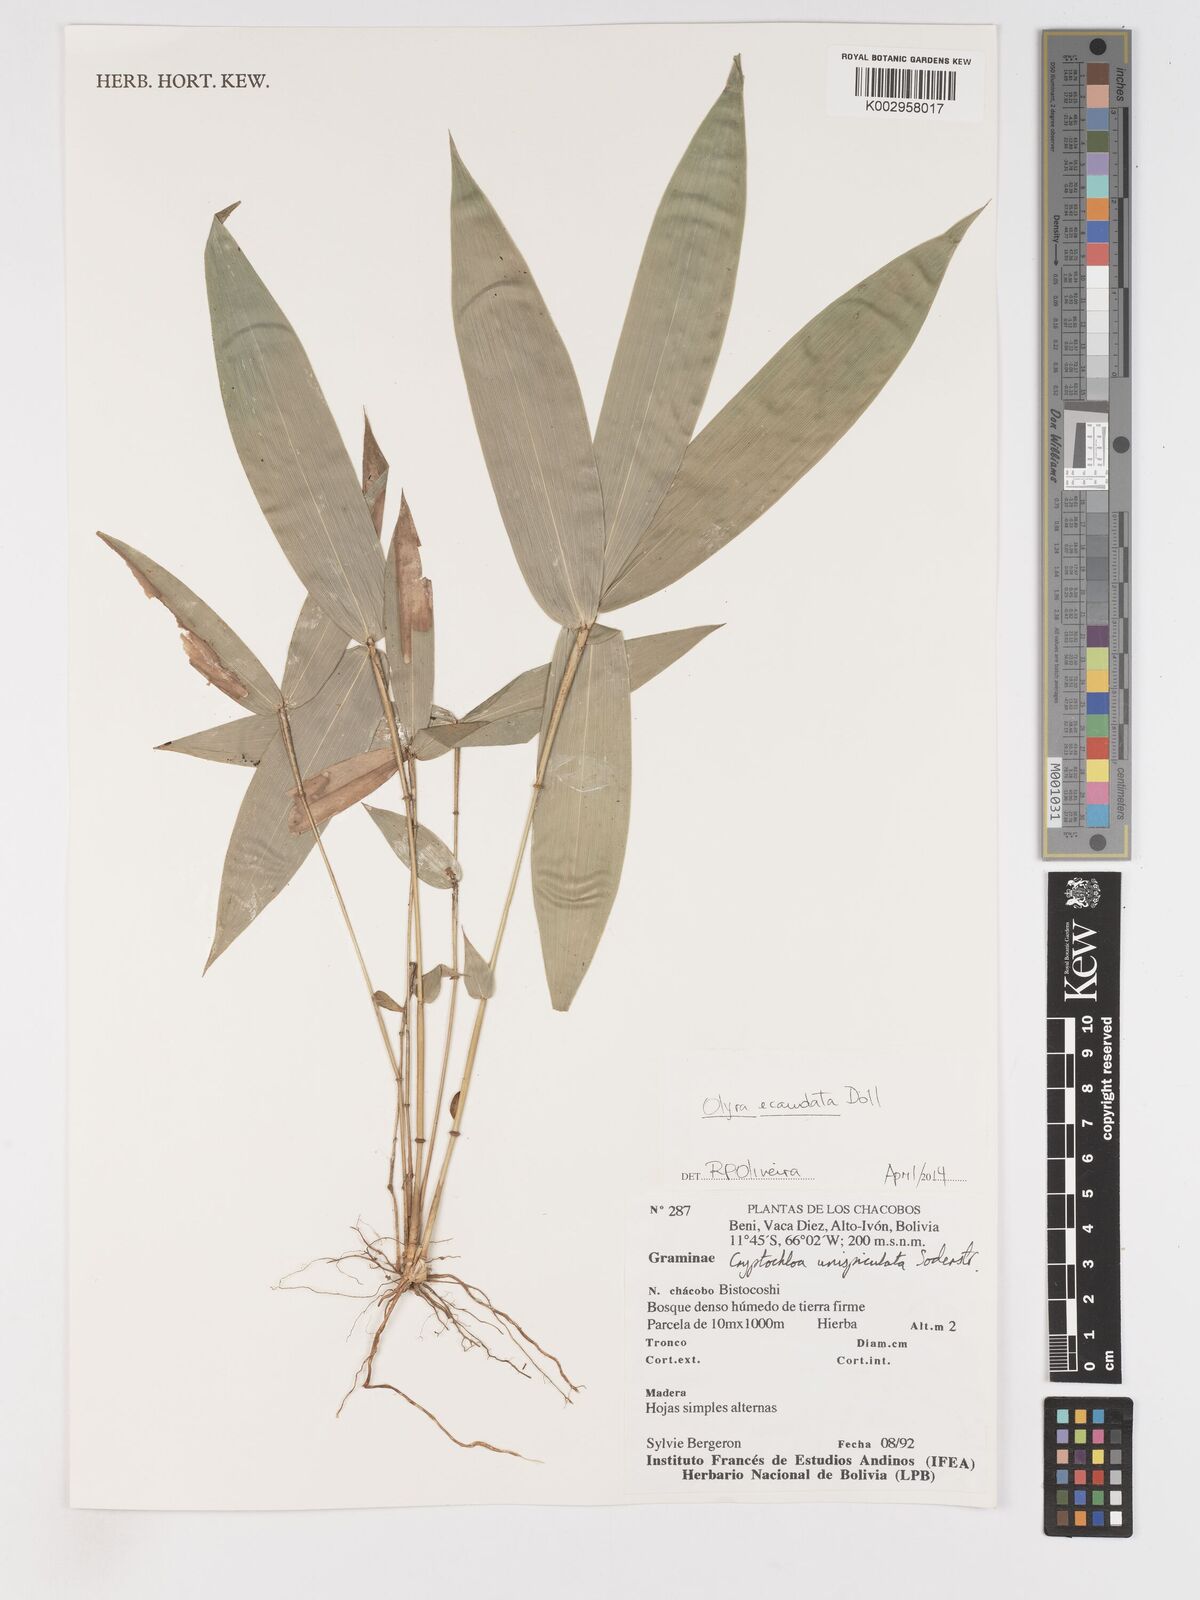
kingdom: Plantae
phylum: Tracheophyta
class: Liliopsida
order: Poales
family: Poaceae
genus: Olyra
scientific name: Olyra ecaudata
